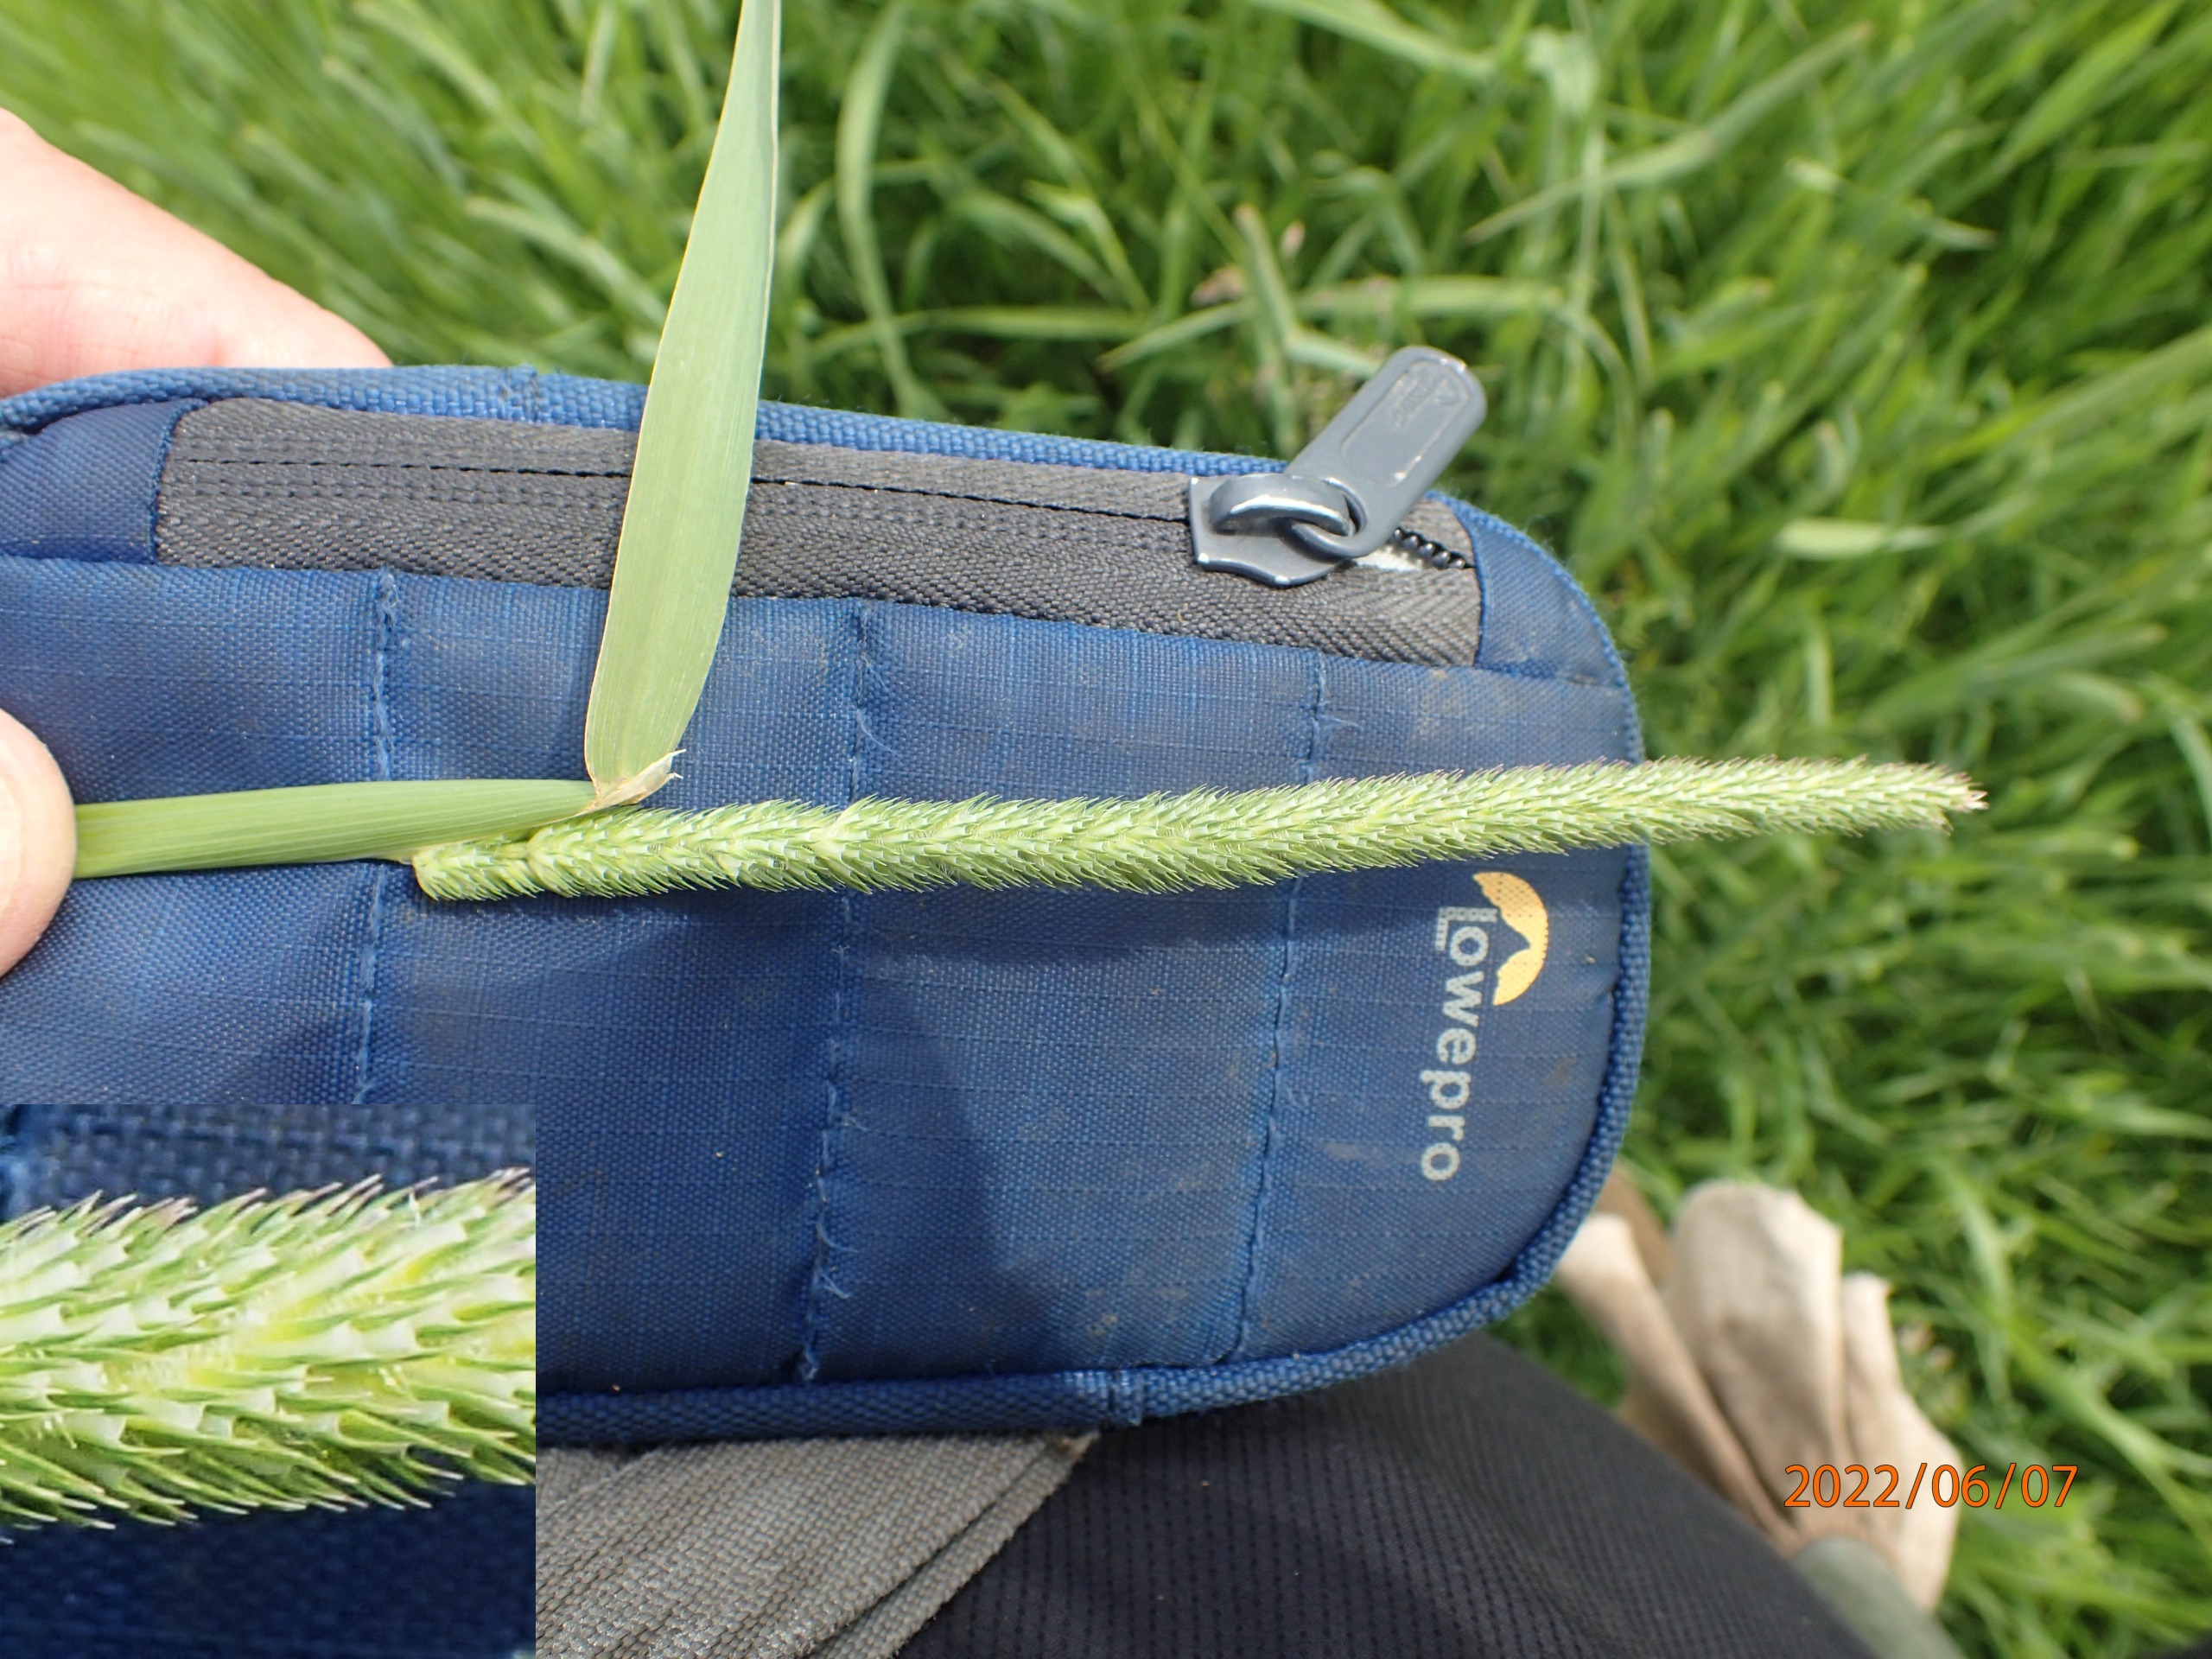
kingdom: Plantae
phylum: Tracheophyta
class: Liliopsida
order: Poales
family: Poaceae
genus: Phleum
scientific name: Phleum pratense
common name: Eng-rottehale (underart)
